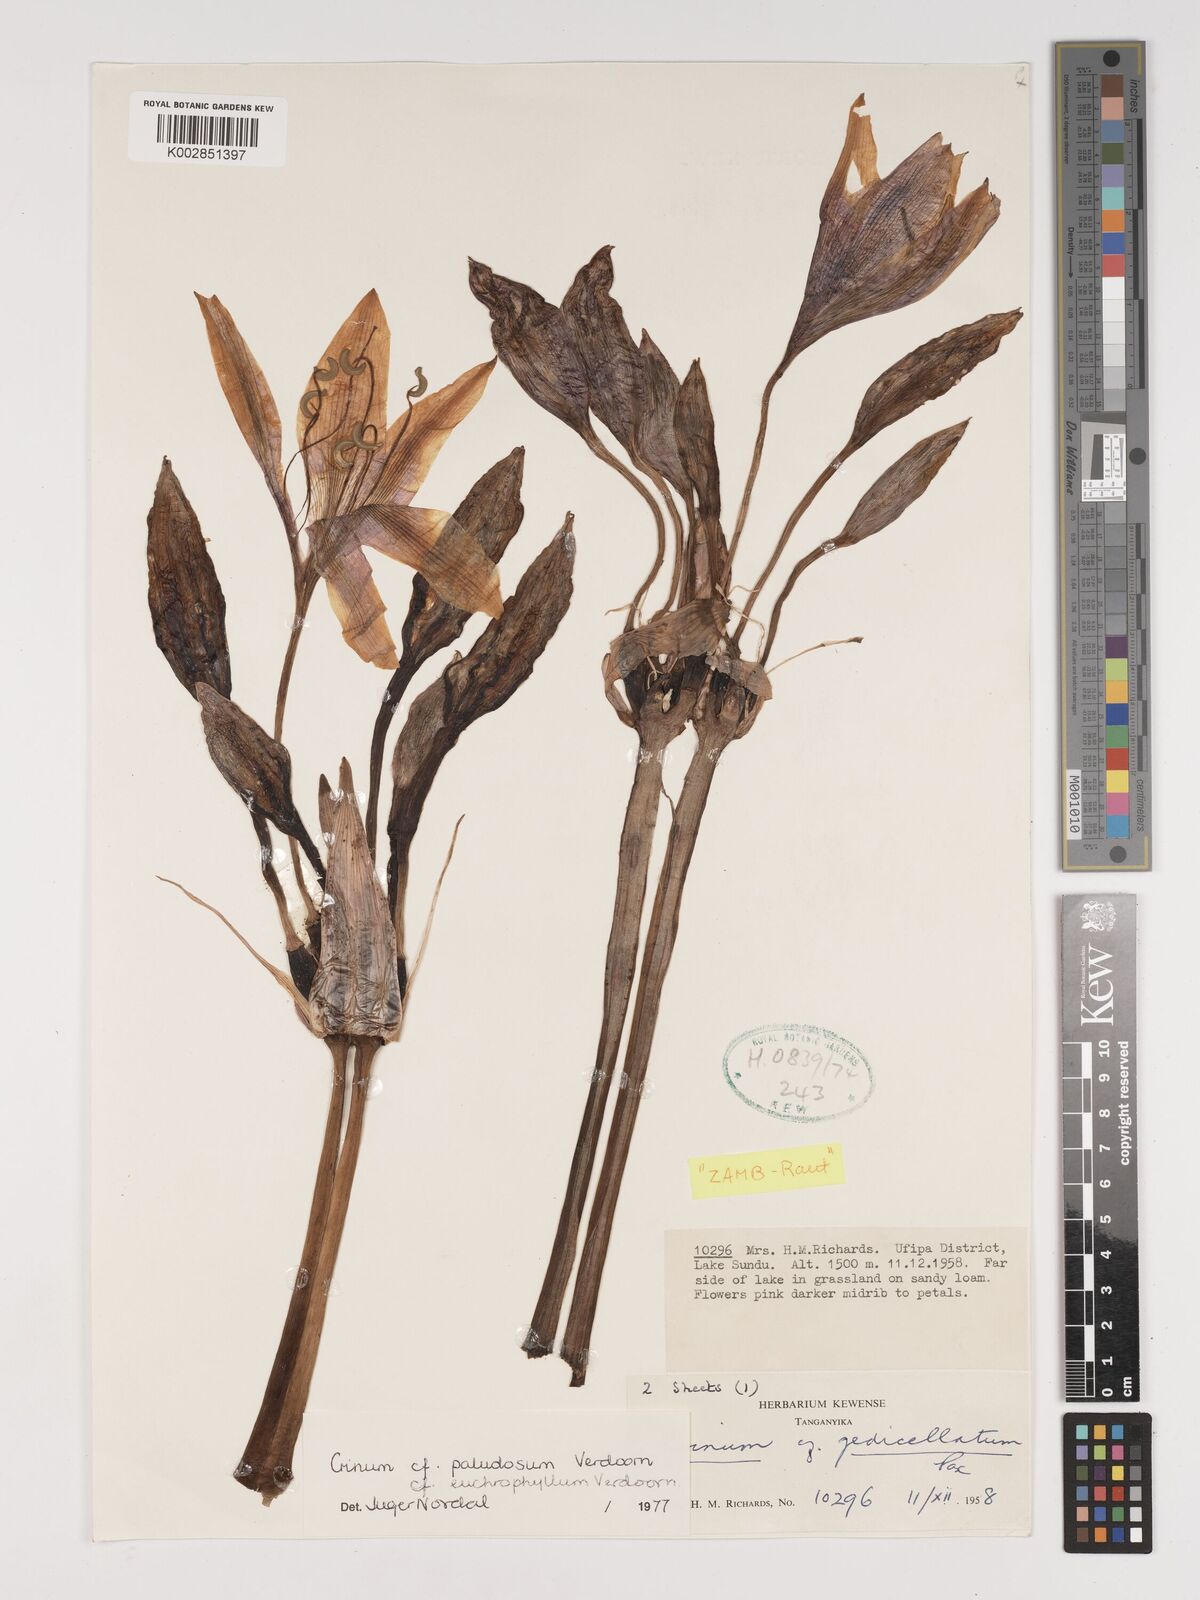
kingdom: Plantae
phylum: Tracheophyta
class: Liliopsida
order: Asparagales
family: Amaryllidaceae
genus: Crinum
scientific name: Crinum paludosum
